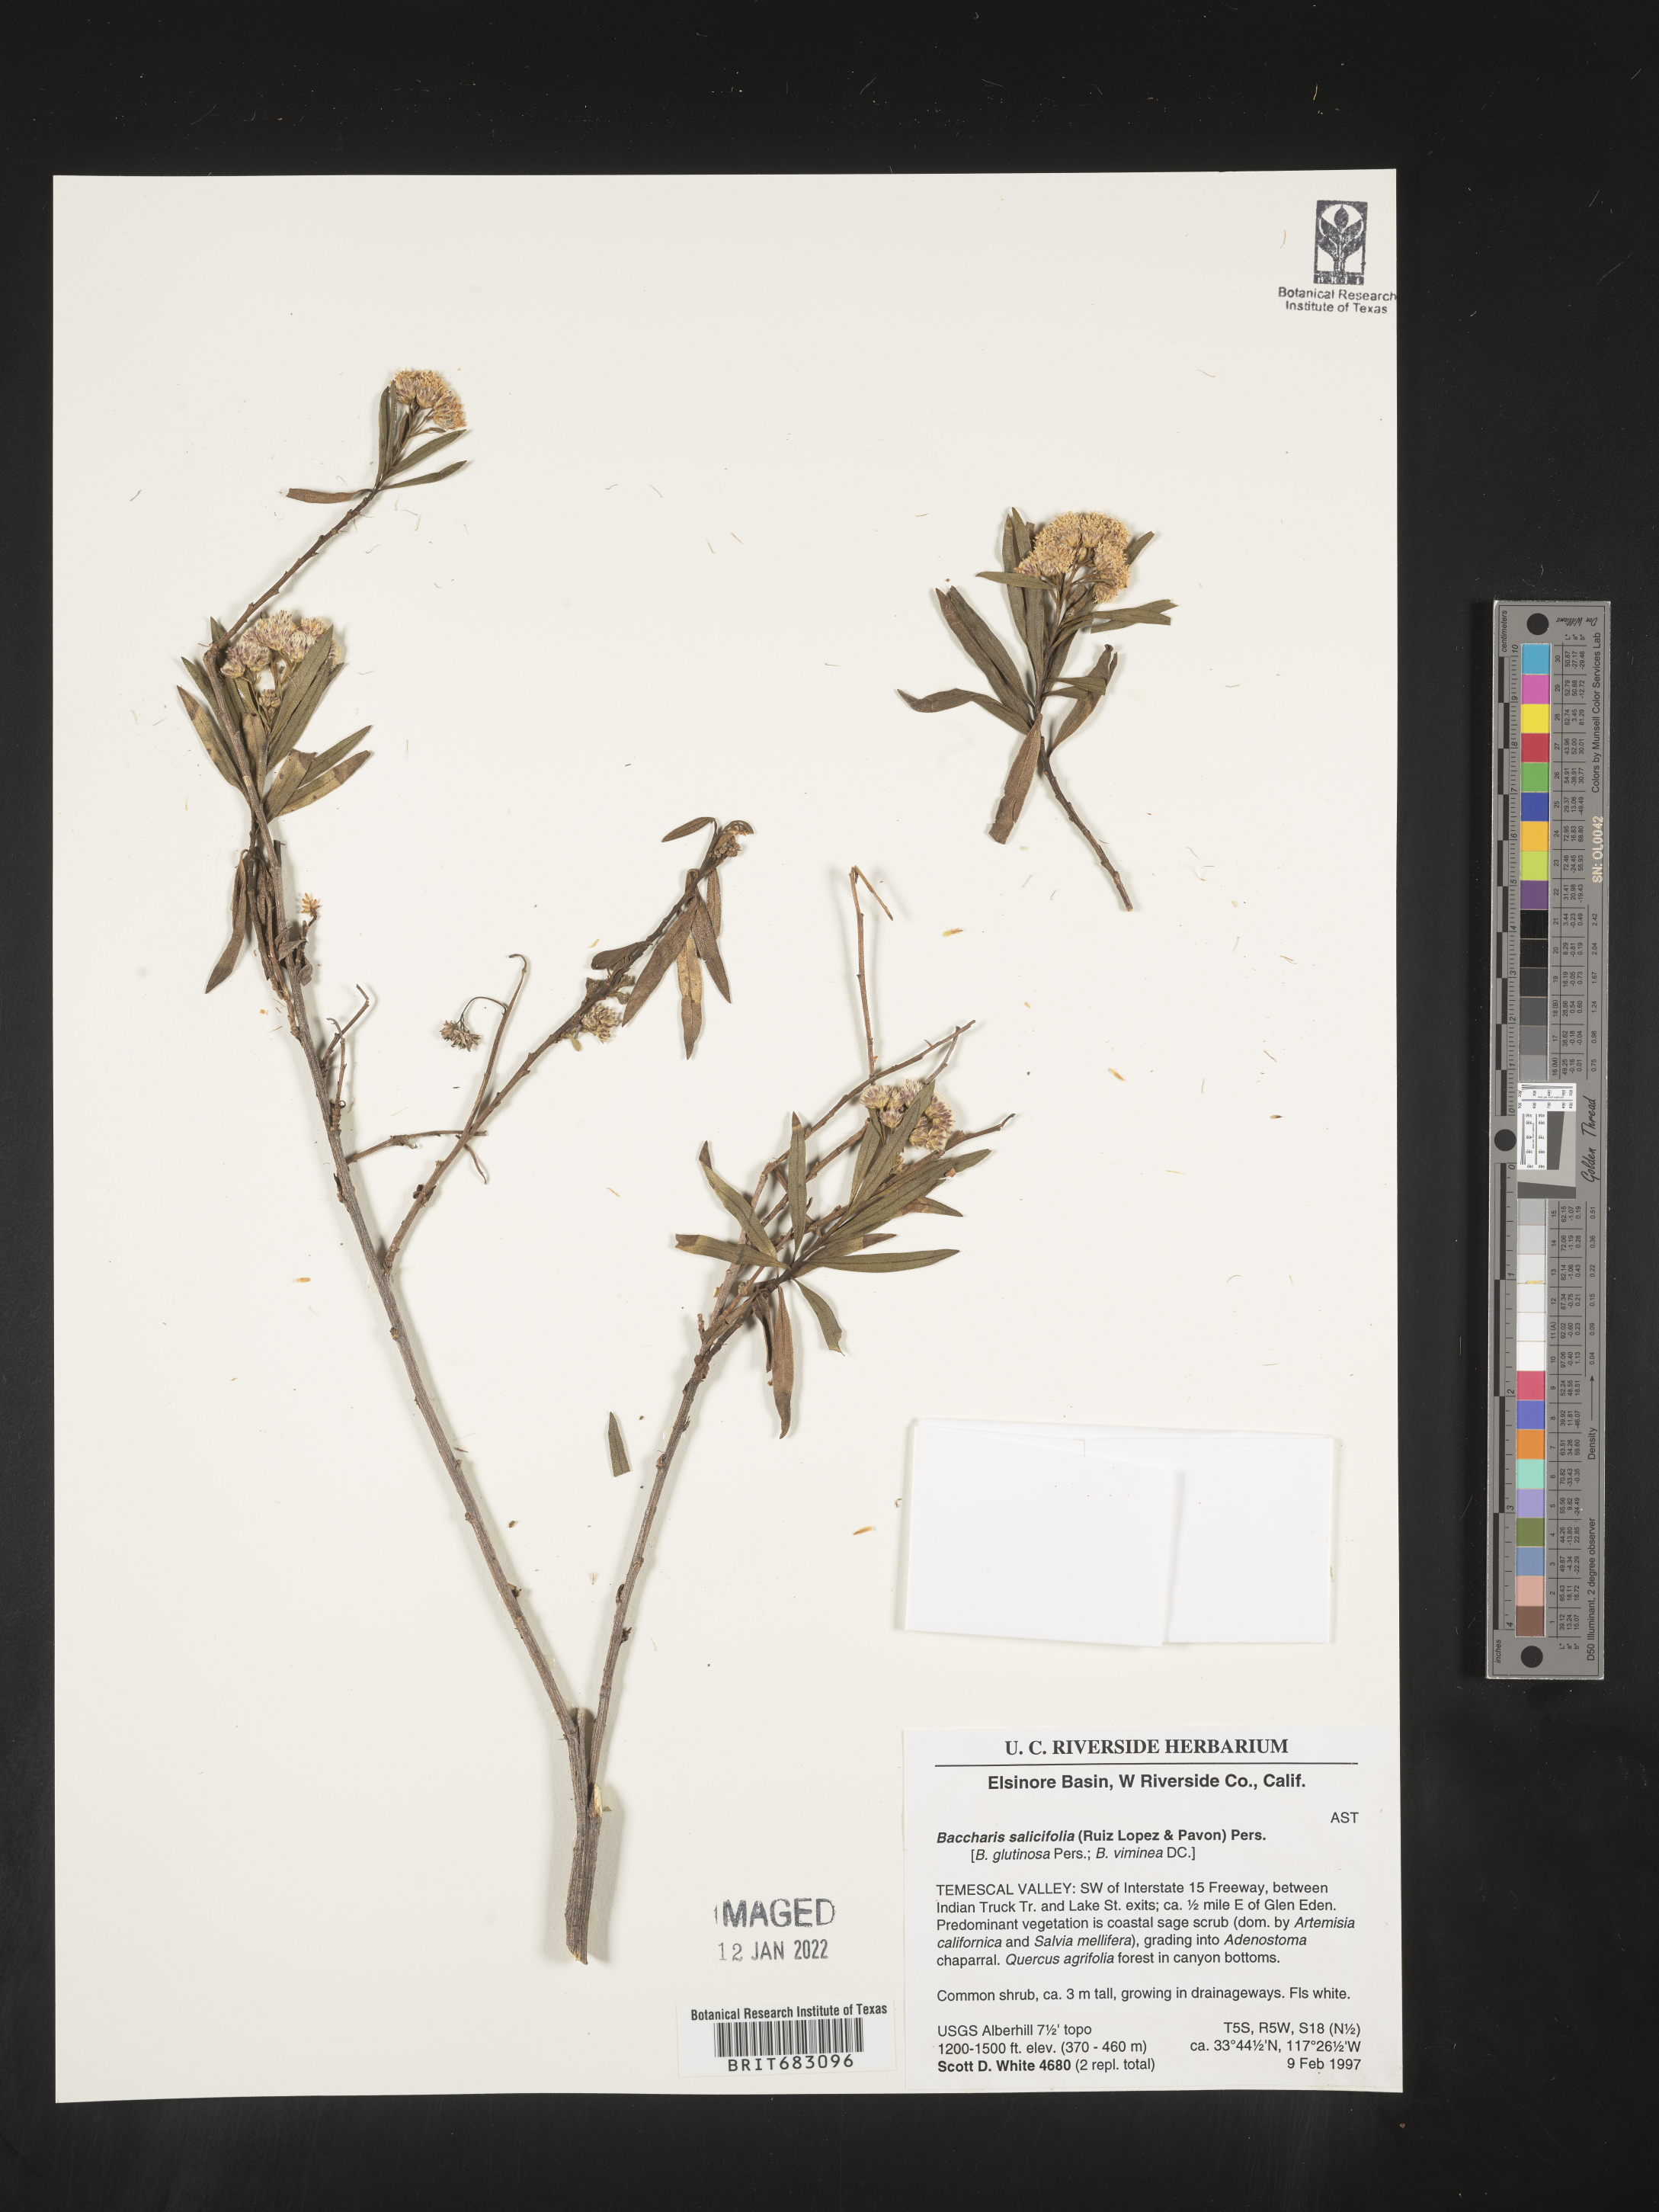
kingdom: Plantae
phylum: Tracheophyta
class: Magnoliopsida
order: Asterales
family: Asteraceae
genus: Baccharis
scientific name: Baccharis salicifolia
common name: Sticky baccharis
